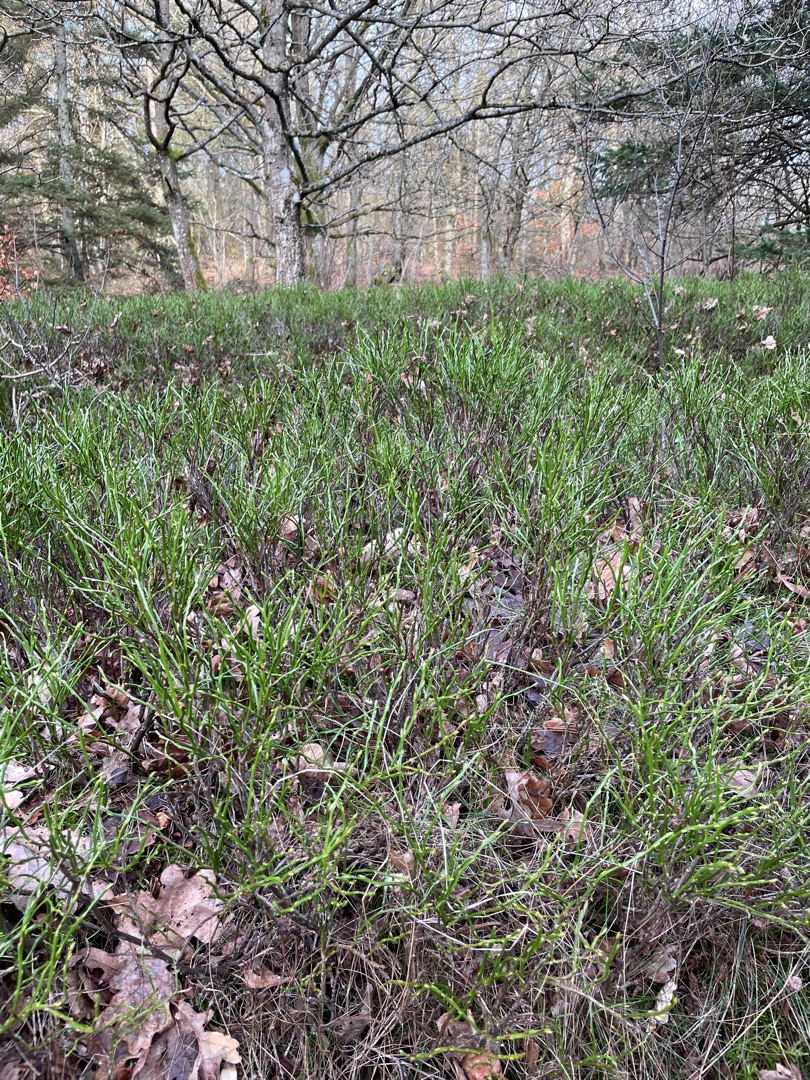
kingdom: Plantae
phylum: Tracheophyta
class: Magnoliopsida
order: Ericales
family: Ericaceae
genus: Vaccinium
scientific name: Vaccinium myrtillus
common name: Blåbær
